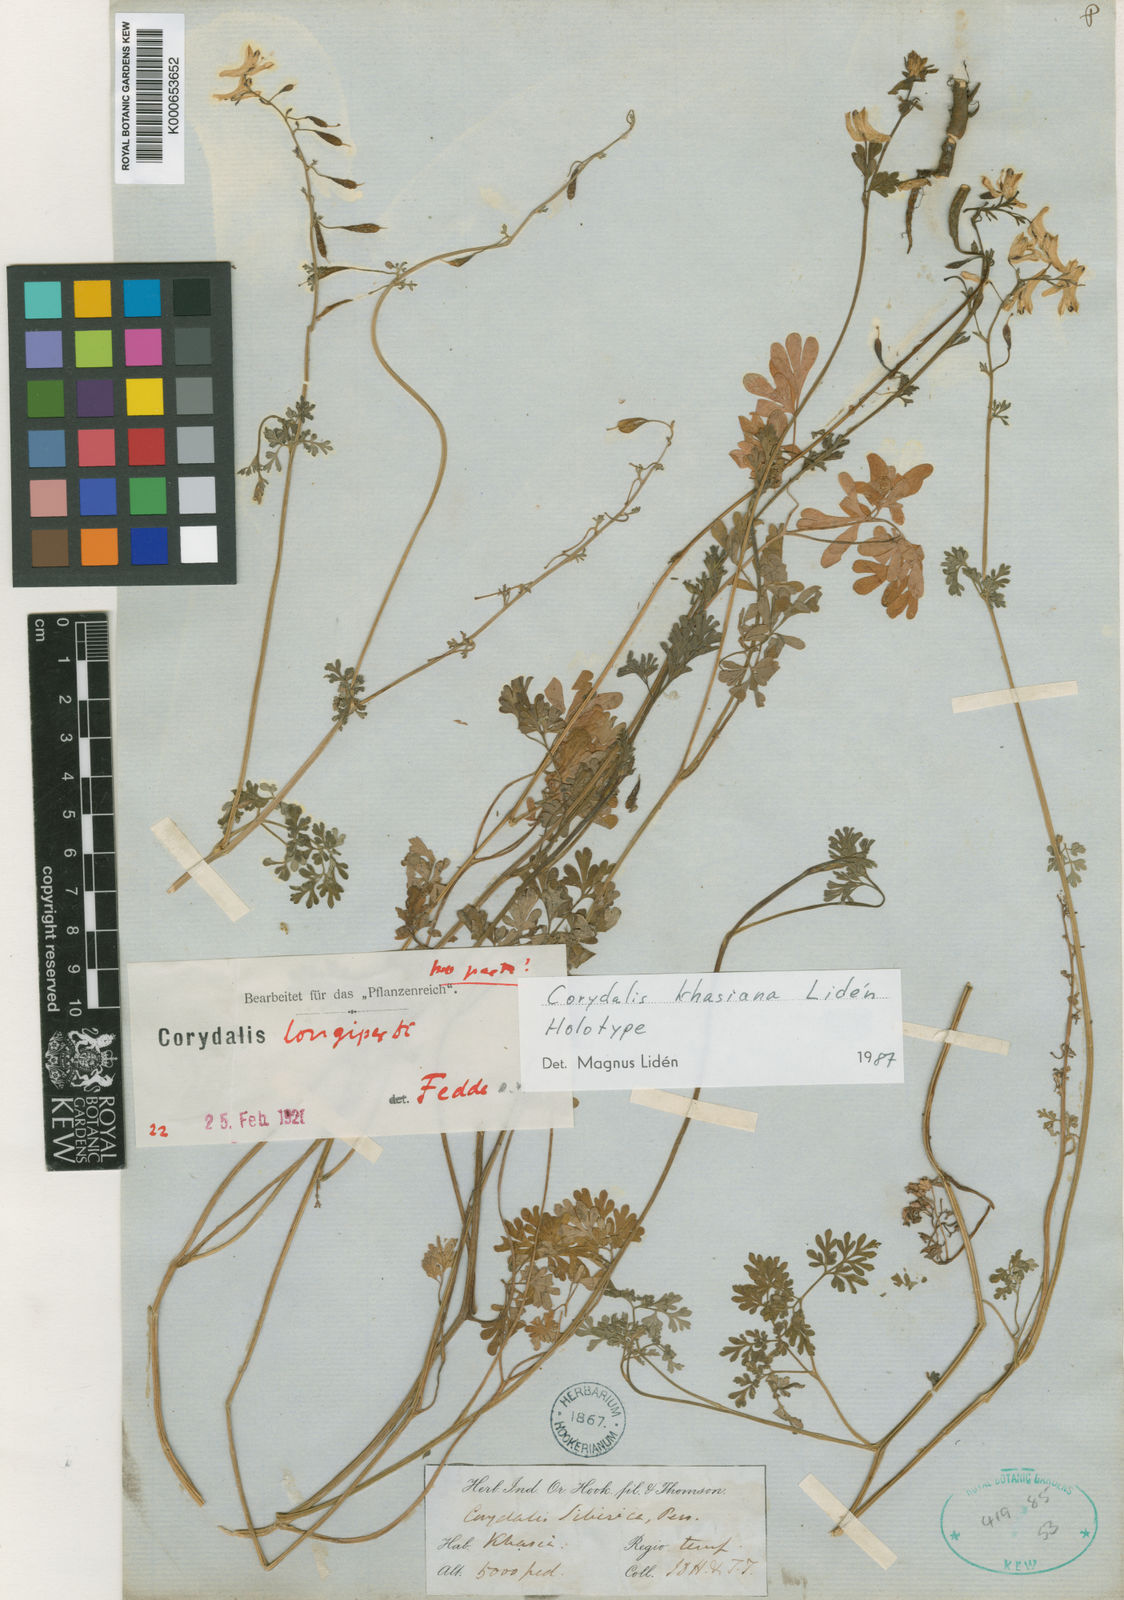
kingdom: Plantae
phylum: Tracheophyta
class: Magnoliopsida
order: Ranunculales
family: Papaveraceae
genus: Corydalis
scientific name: Corydalis
